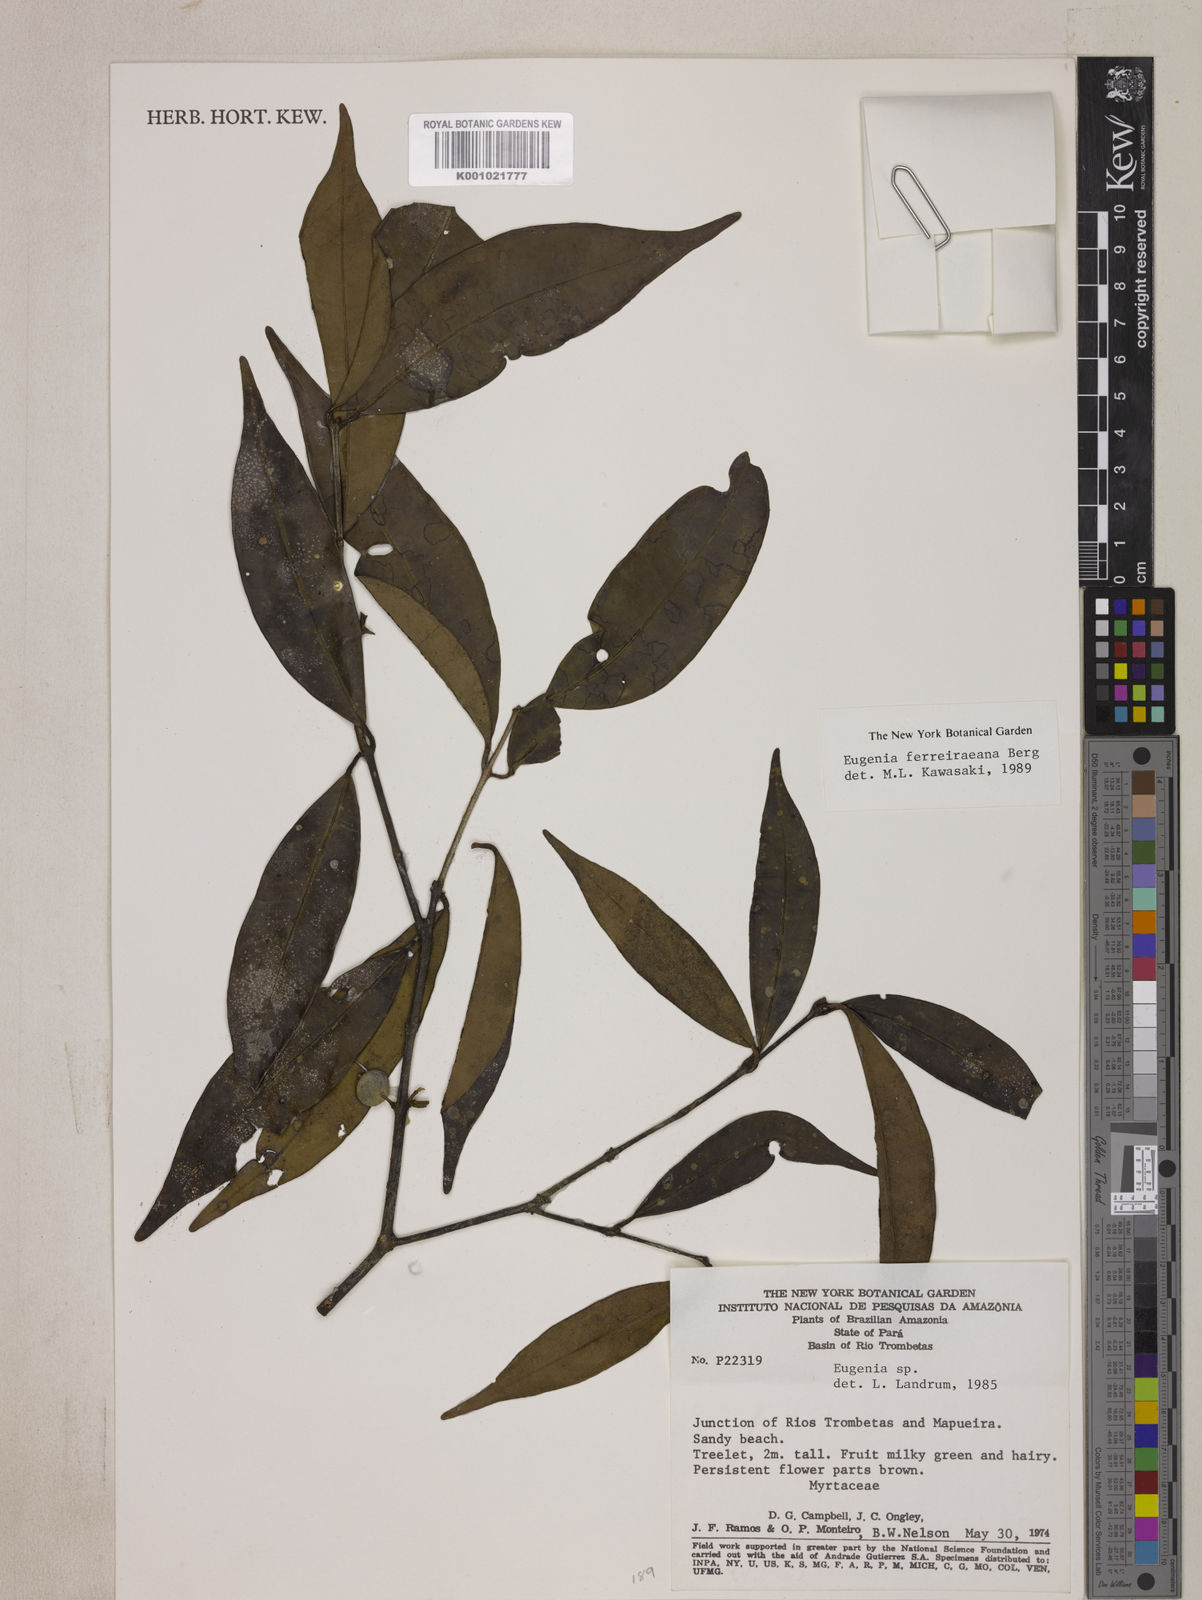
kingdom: Plantae
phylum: Tracheophyta
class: Magnoliopsida
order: Myrtales
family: Myrtaceae
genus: Eugenia
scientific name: Eugenia ferreiraeana
